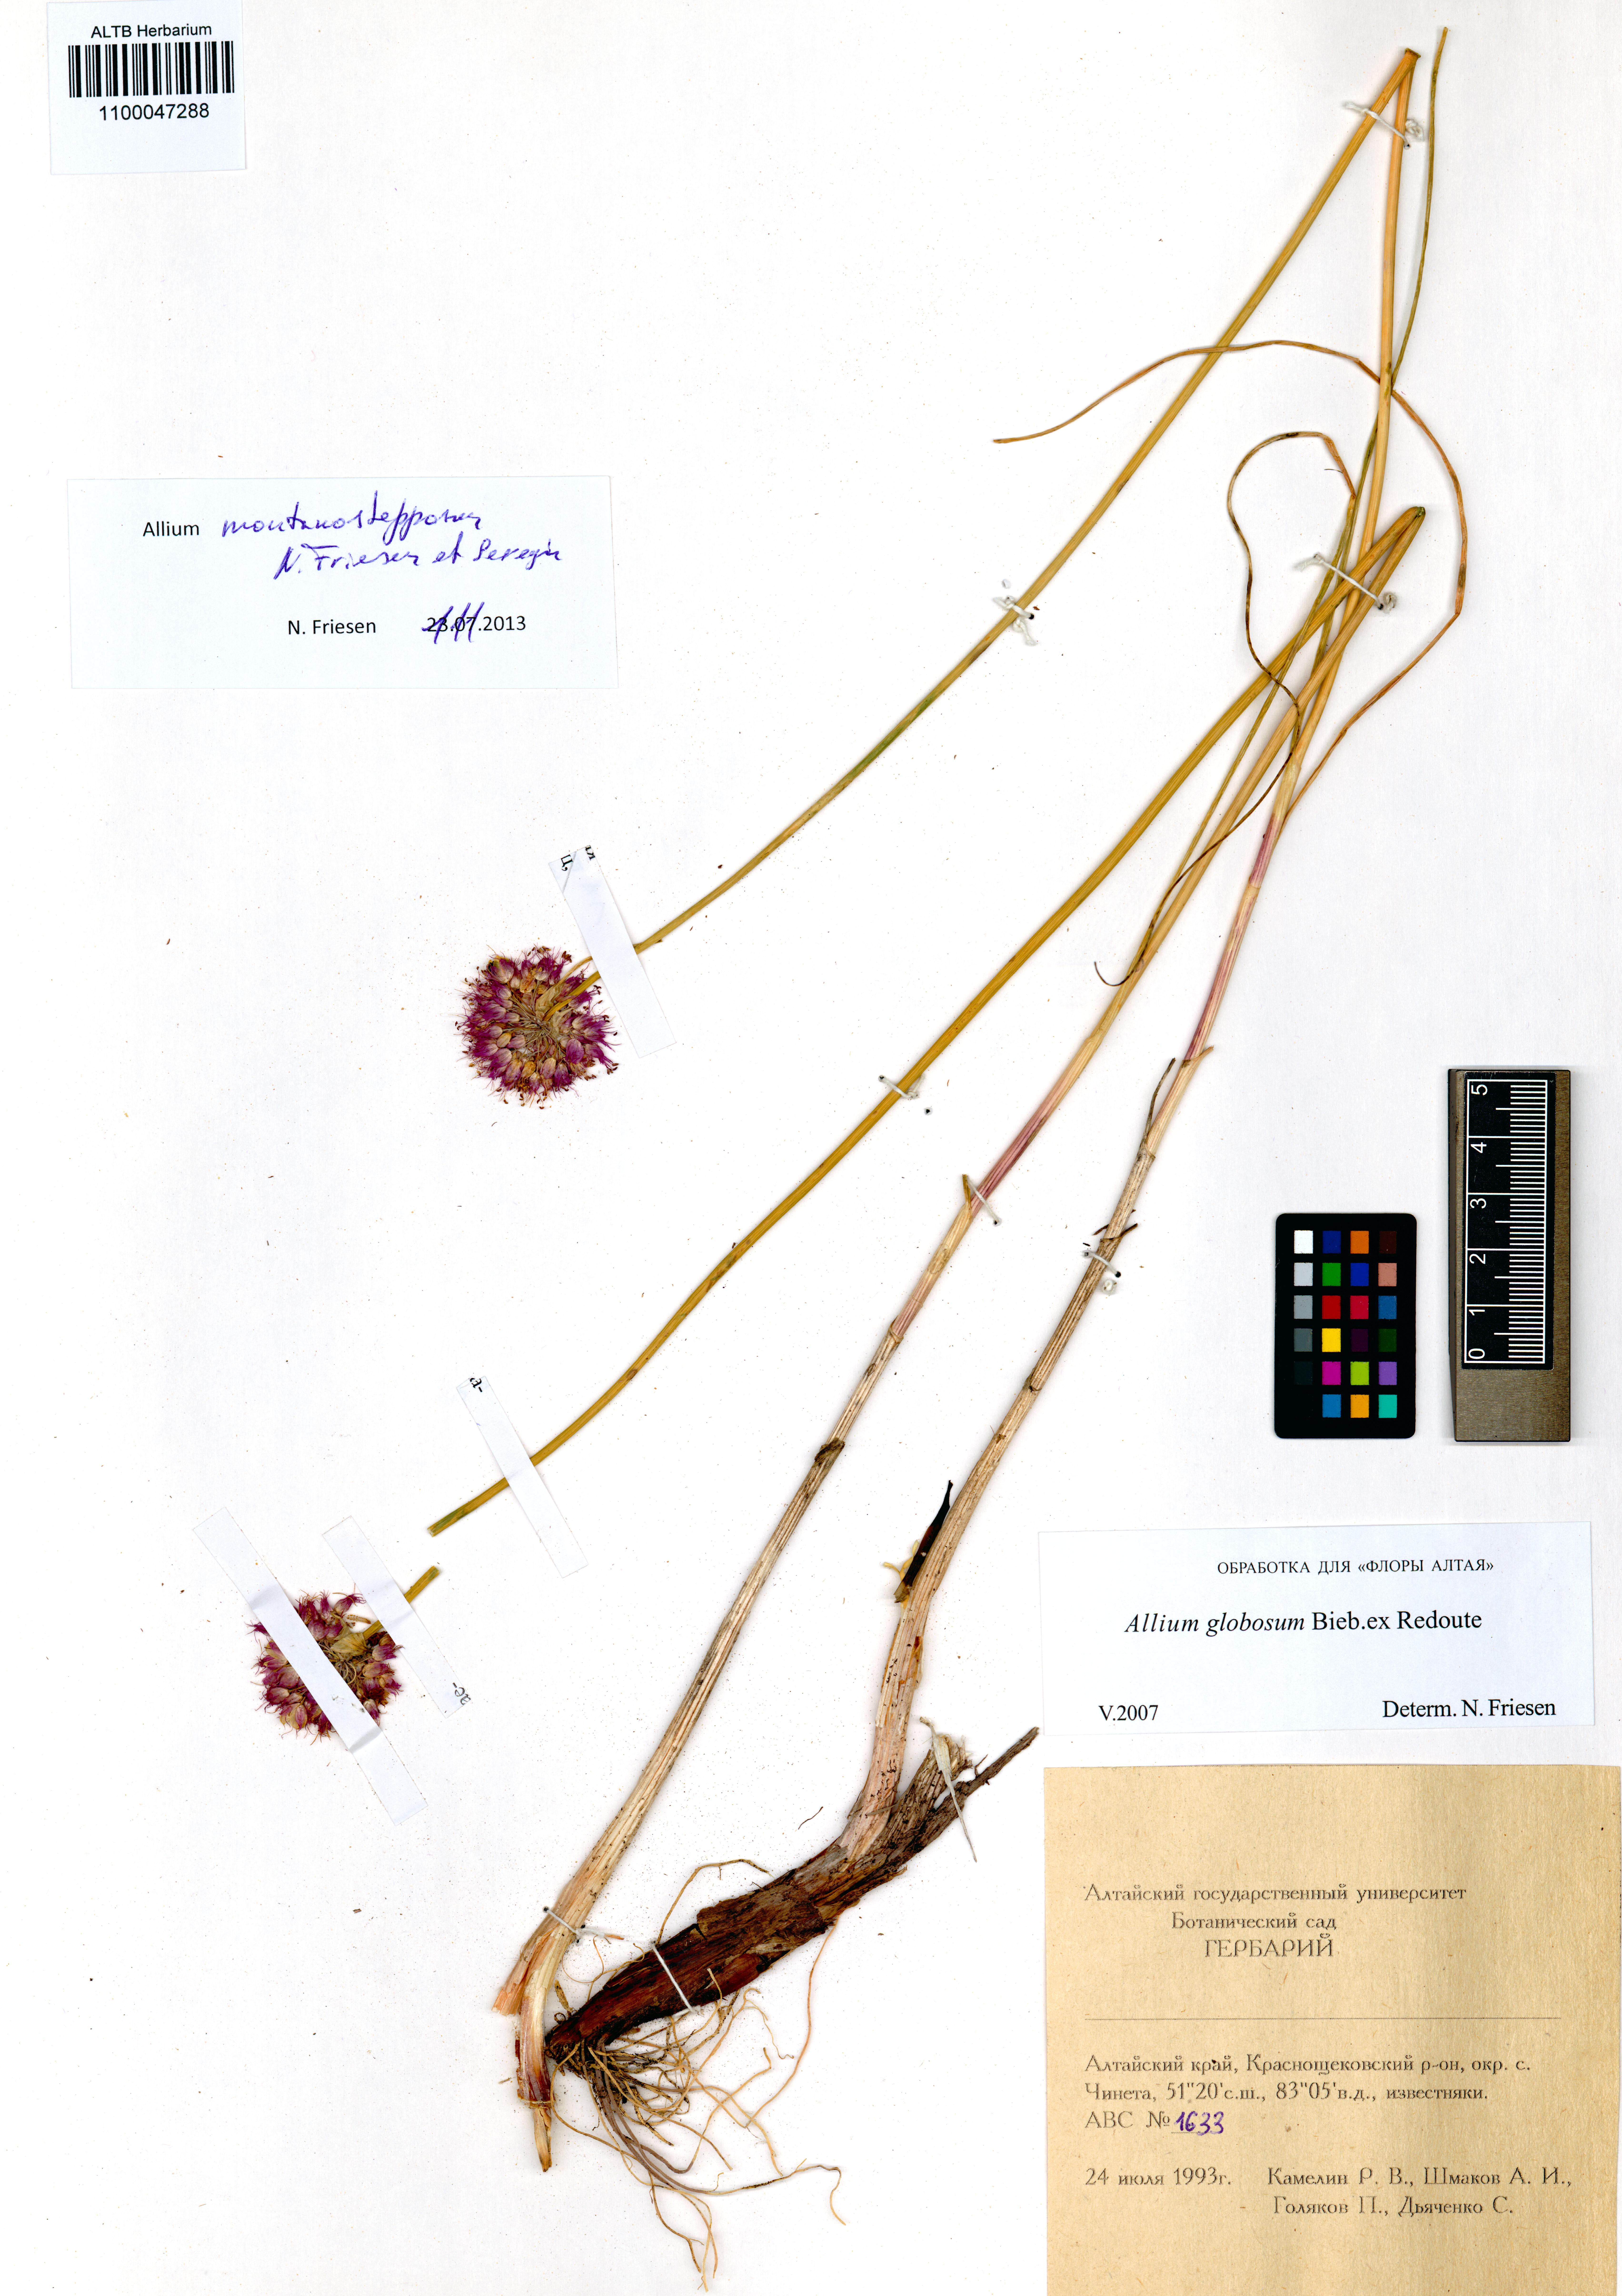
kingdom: Plantae
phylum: Tracheophyta
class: Liliopsida
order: Asparagales
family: Amaryllidaceae
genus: Allium
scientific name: Allium montanostepposum
